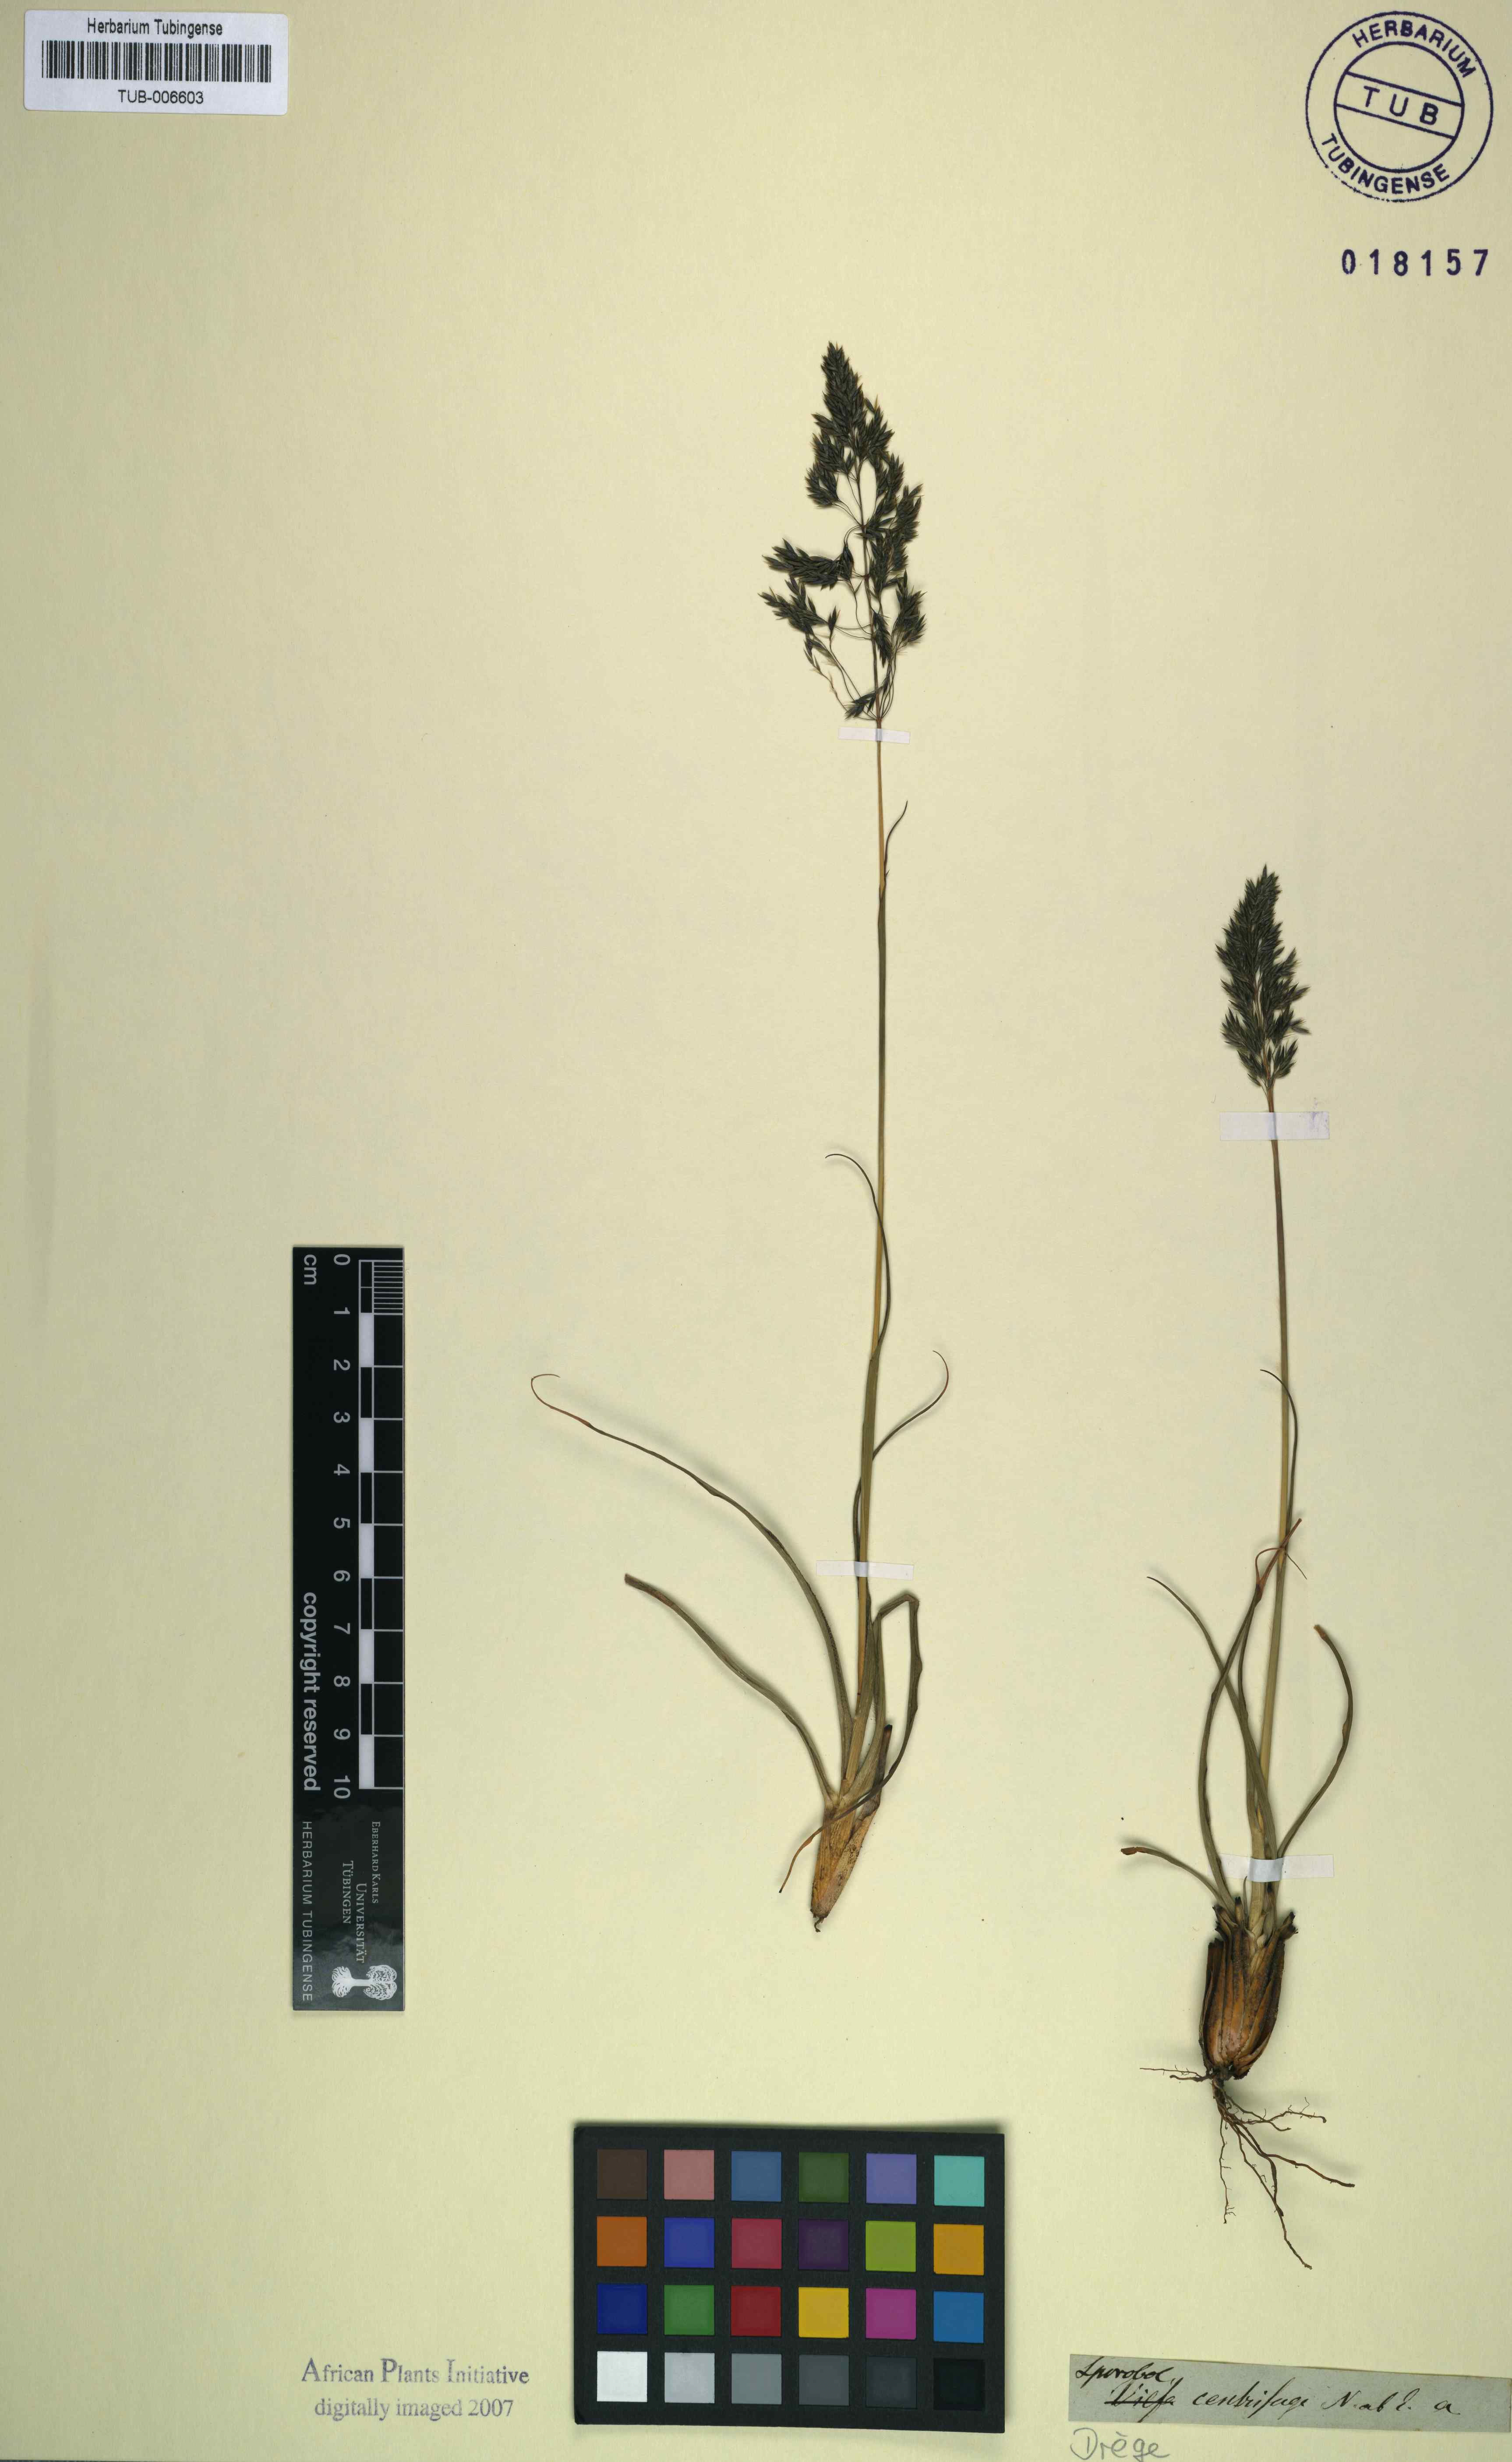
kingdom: Plantae
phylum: Tracheophyta
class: Liliopsida
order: Poales
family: Poaceae
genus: Sporobolus
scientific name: Sporobolus centrifugus
